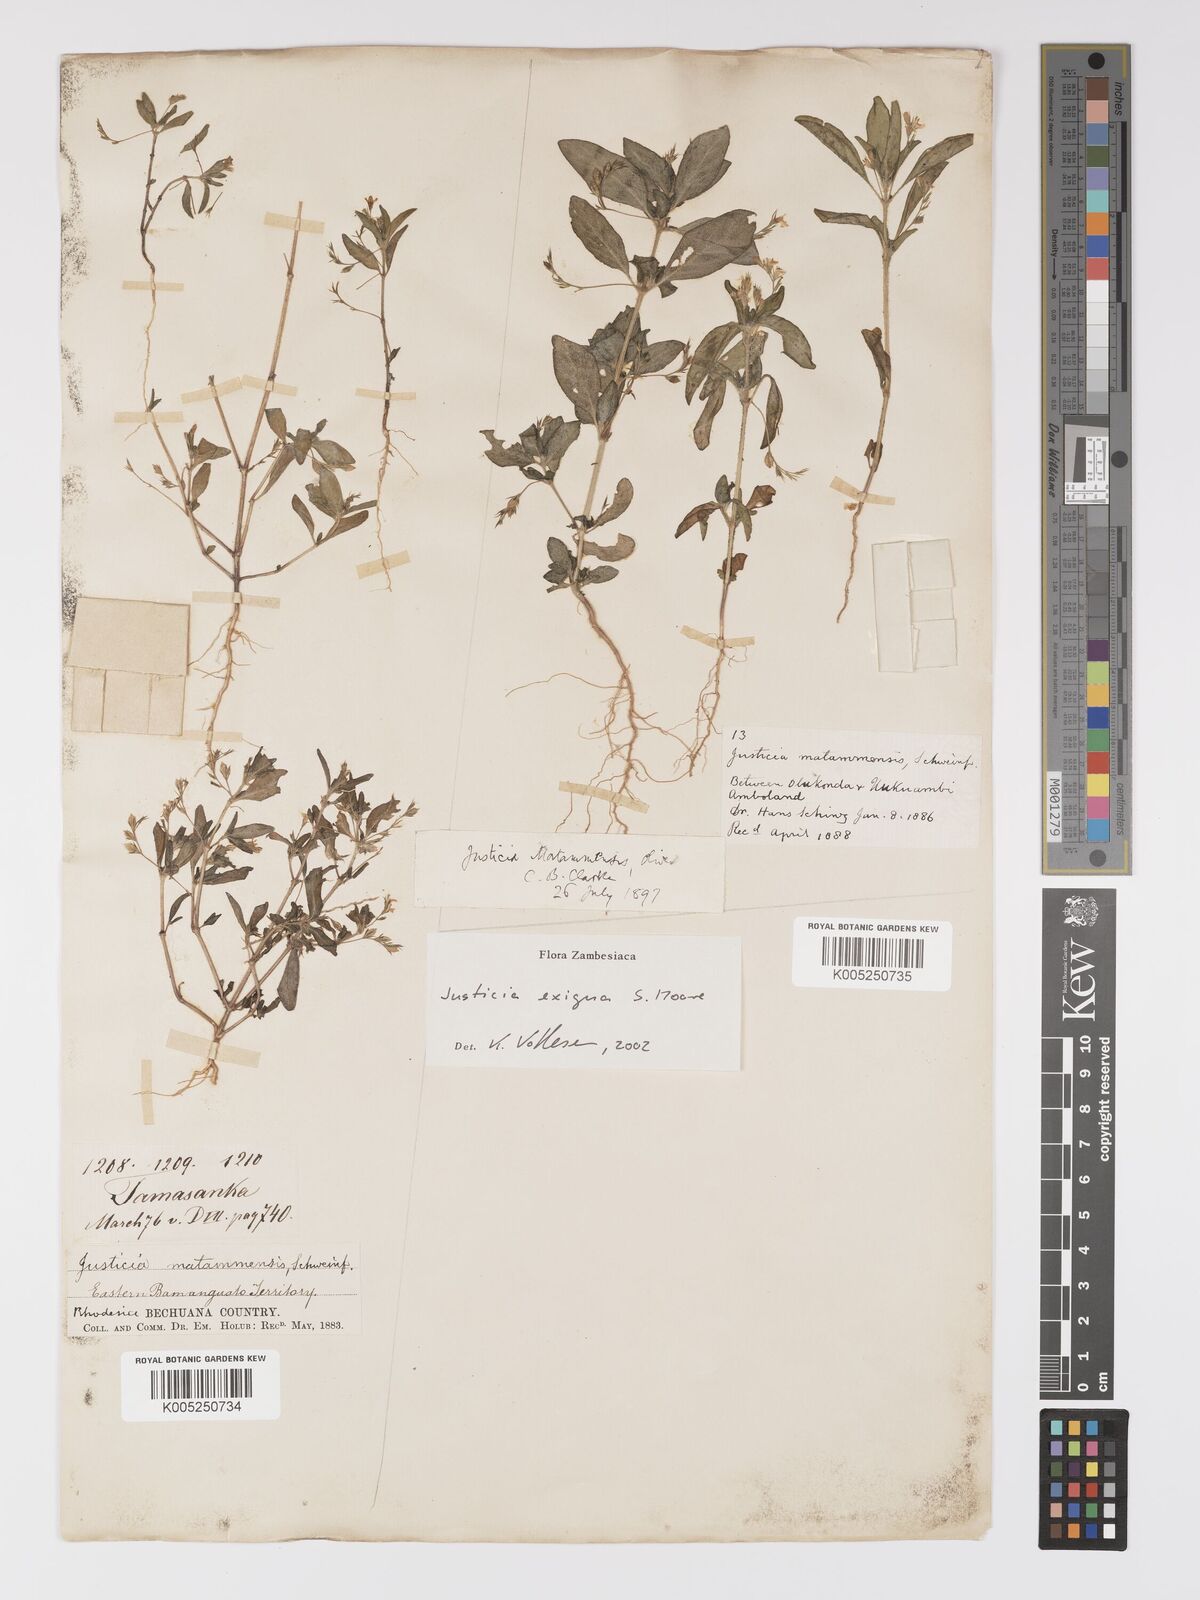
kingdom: Plantae
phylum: Tracheophyta
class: Magnoliopsida
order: Lamiales
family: Acanthaceae
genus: Justicia
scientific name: Justicia exigua
